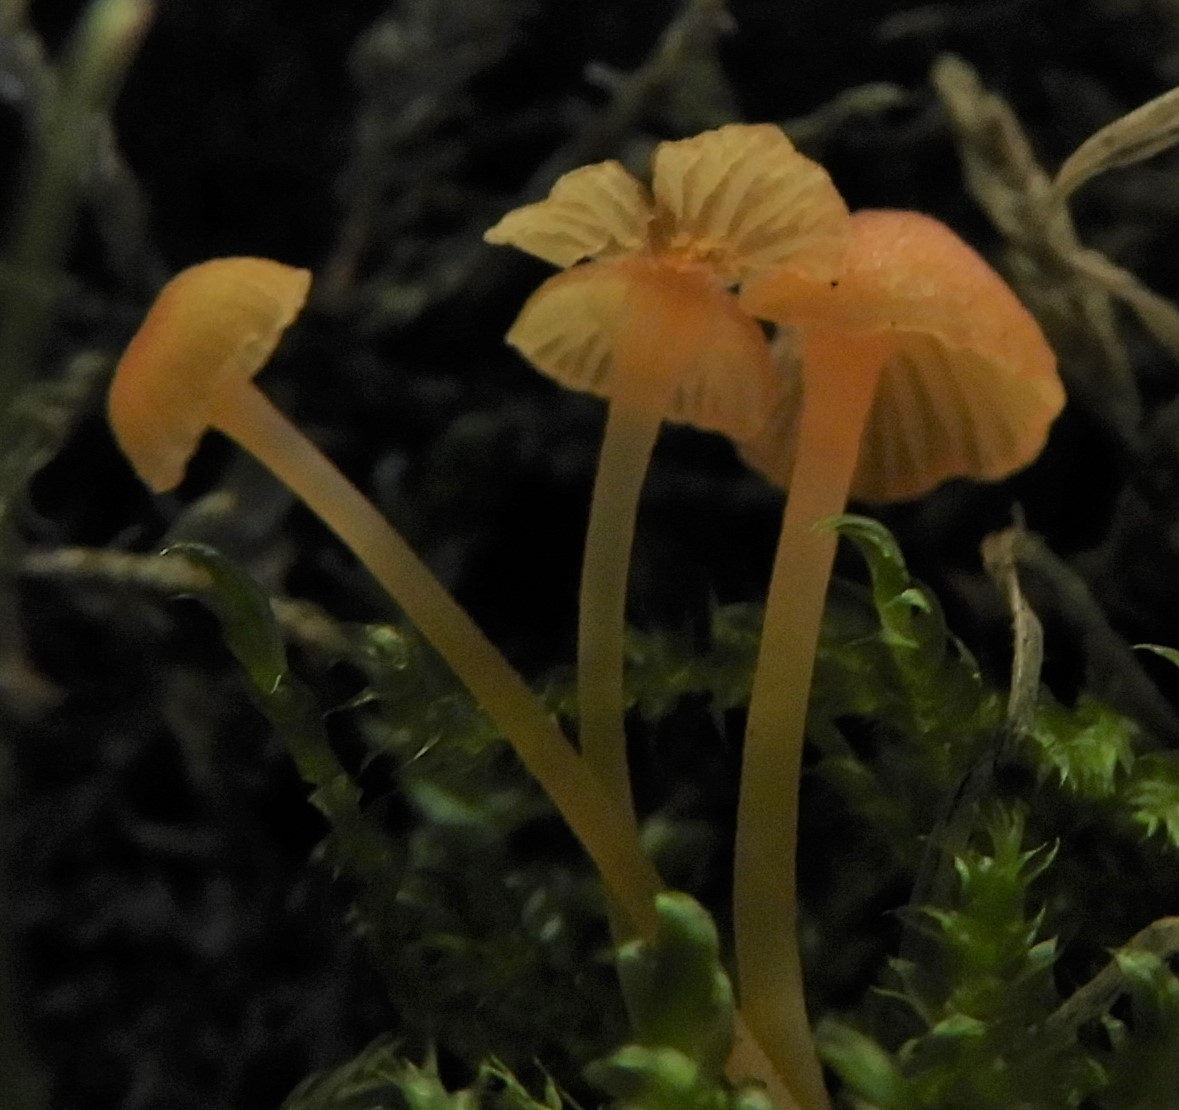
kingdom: Fungi
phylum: Basidiomycota
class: Agaricomycetes
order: Hymenochaetales
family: Rickenellaceae
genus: Rickenella
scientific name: Rickenella fibula
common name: orange mosnavlehat
